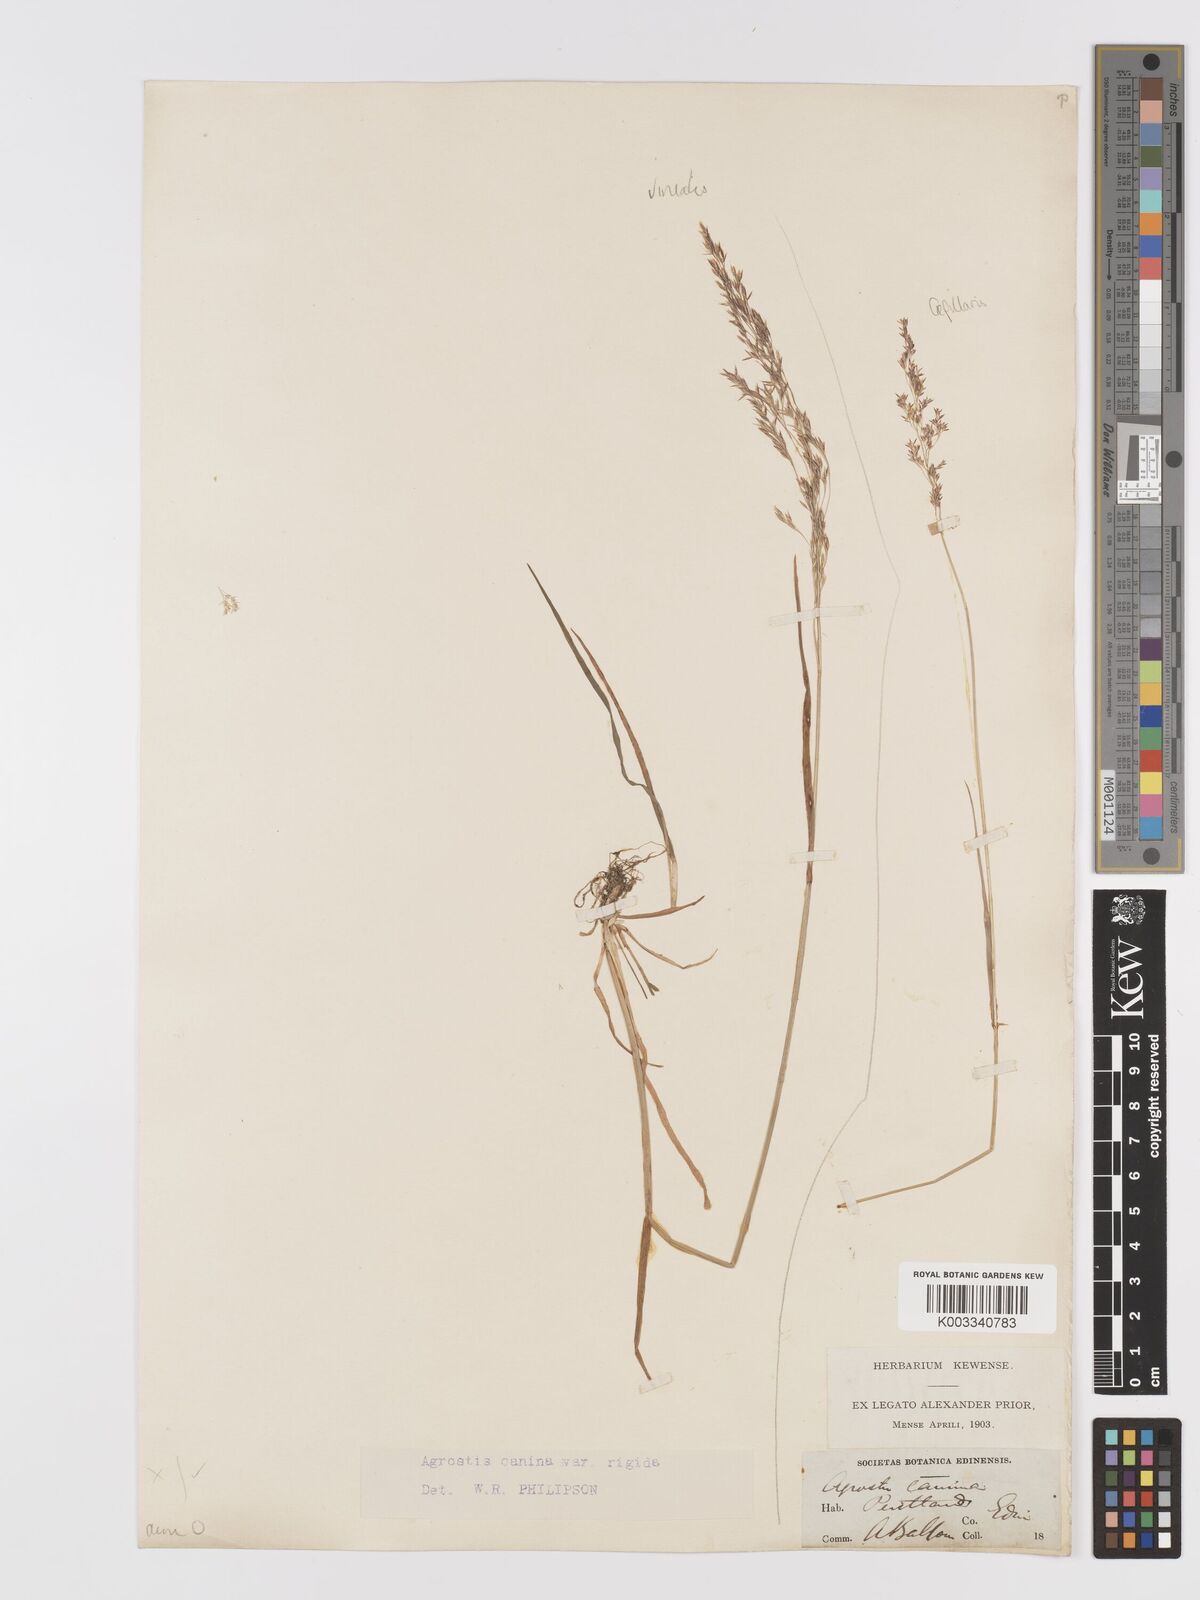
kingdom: Plantae
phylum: Tracheophyta
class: Liliopsida
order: Poales
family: Poaceae
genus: Agrostis
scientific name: Agrostis capillaris
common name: Colonial bentgrass
